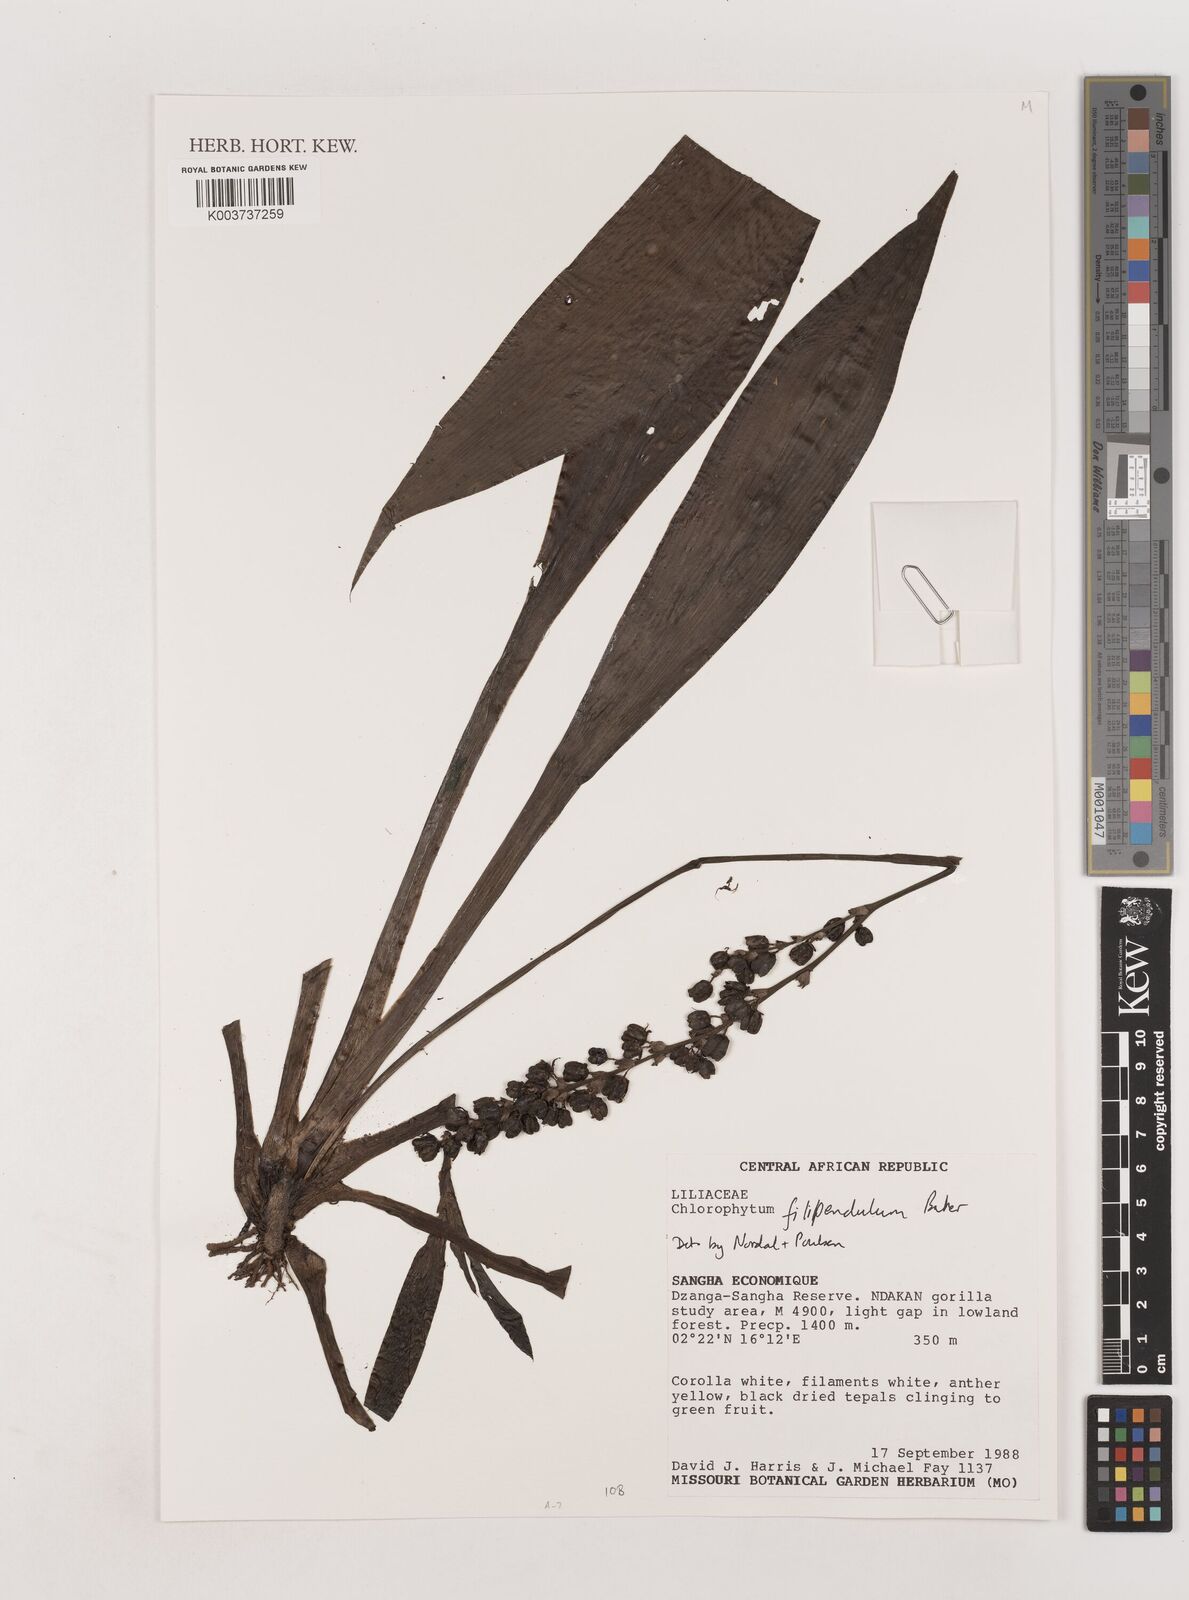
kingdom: Plantae
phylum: Tracheophyta
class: Liliopsida
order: Asparagales
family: Asparagaceae
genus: Chlorophytum
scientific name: Chlorophytum filipendulum
